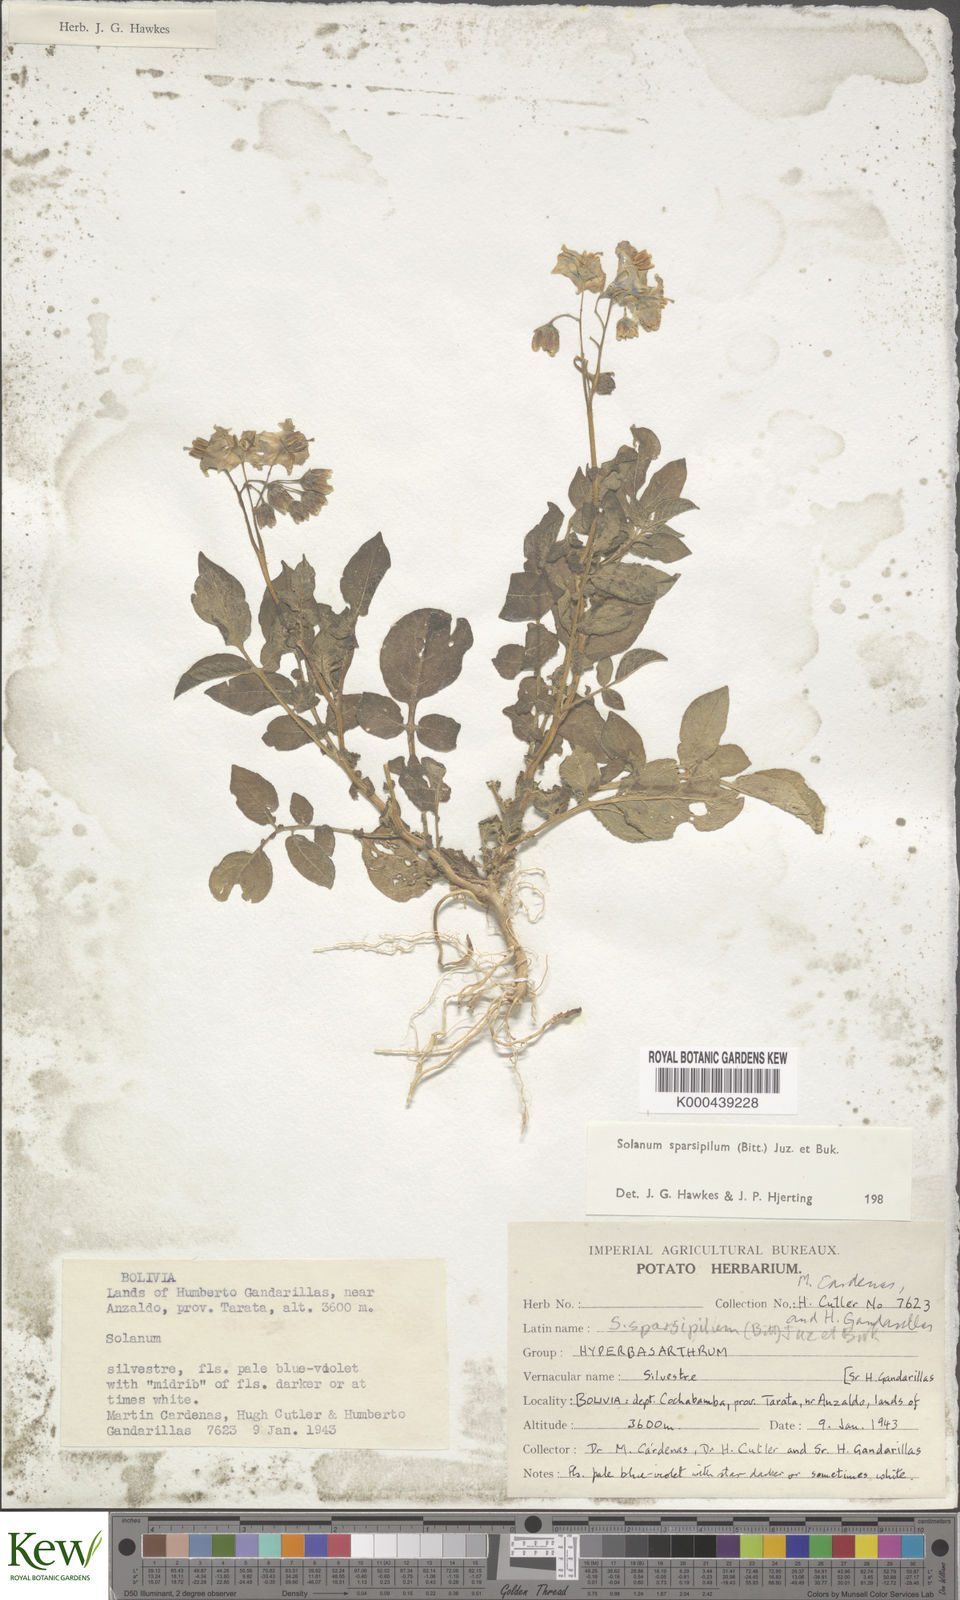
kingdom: Plantae
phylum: Tracheophyta
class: Magnoliopsida
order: Solanales
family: Solanaceae
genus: Solanum
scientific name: Solanum brevicaule
